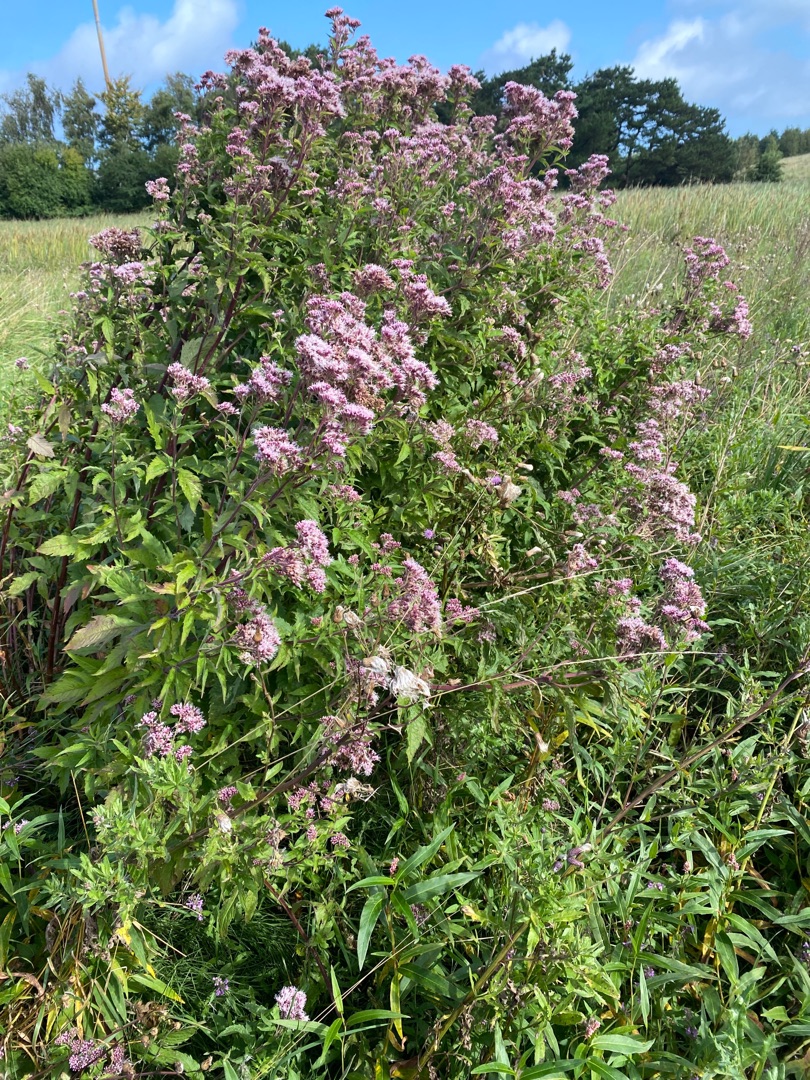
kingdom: Plantae
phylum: Tracheophyta
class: Magnoliopsida
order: Asterales
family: Asteraceae
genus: Eupatorium
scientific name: Eupatorium cannabinum
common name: Hjortetrøst
